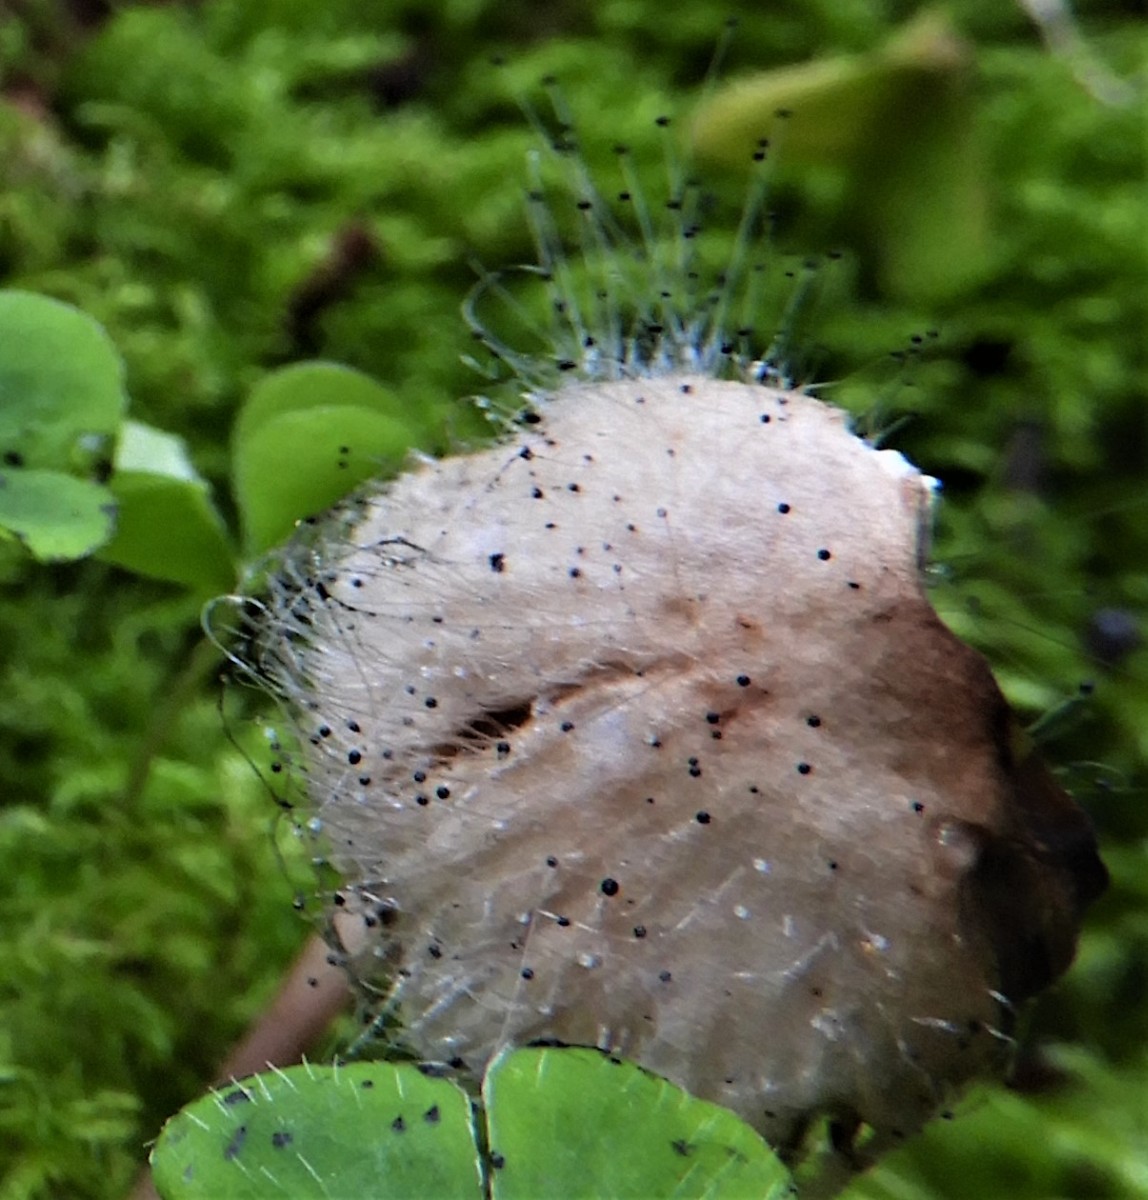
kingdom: Fungi
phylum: Mucoromycota
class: Mucoromycetes
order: Mucorales
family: Phycomycetaceae
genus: Spinellus
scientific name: Spinellus fusiger
